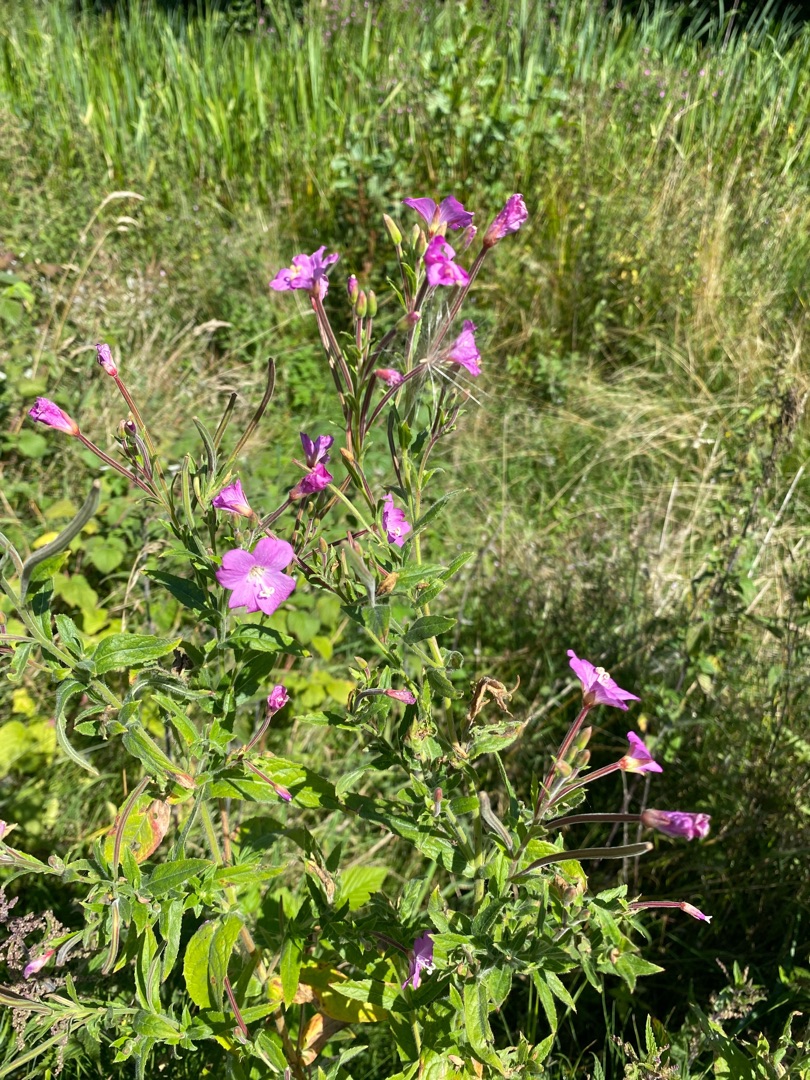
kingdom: Plantae
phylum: Tracheophyta
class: Magnoliopsida
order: Myrtales
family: Onagraceae
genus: Epilobium
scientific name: Epilobium hirsutum
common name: Lådden dueurt
